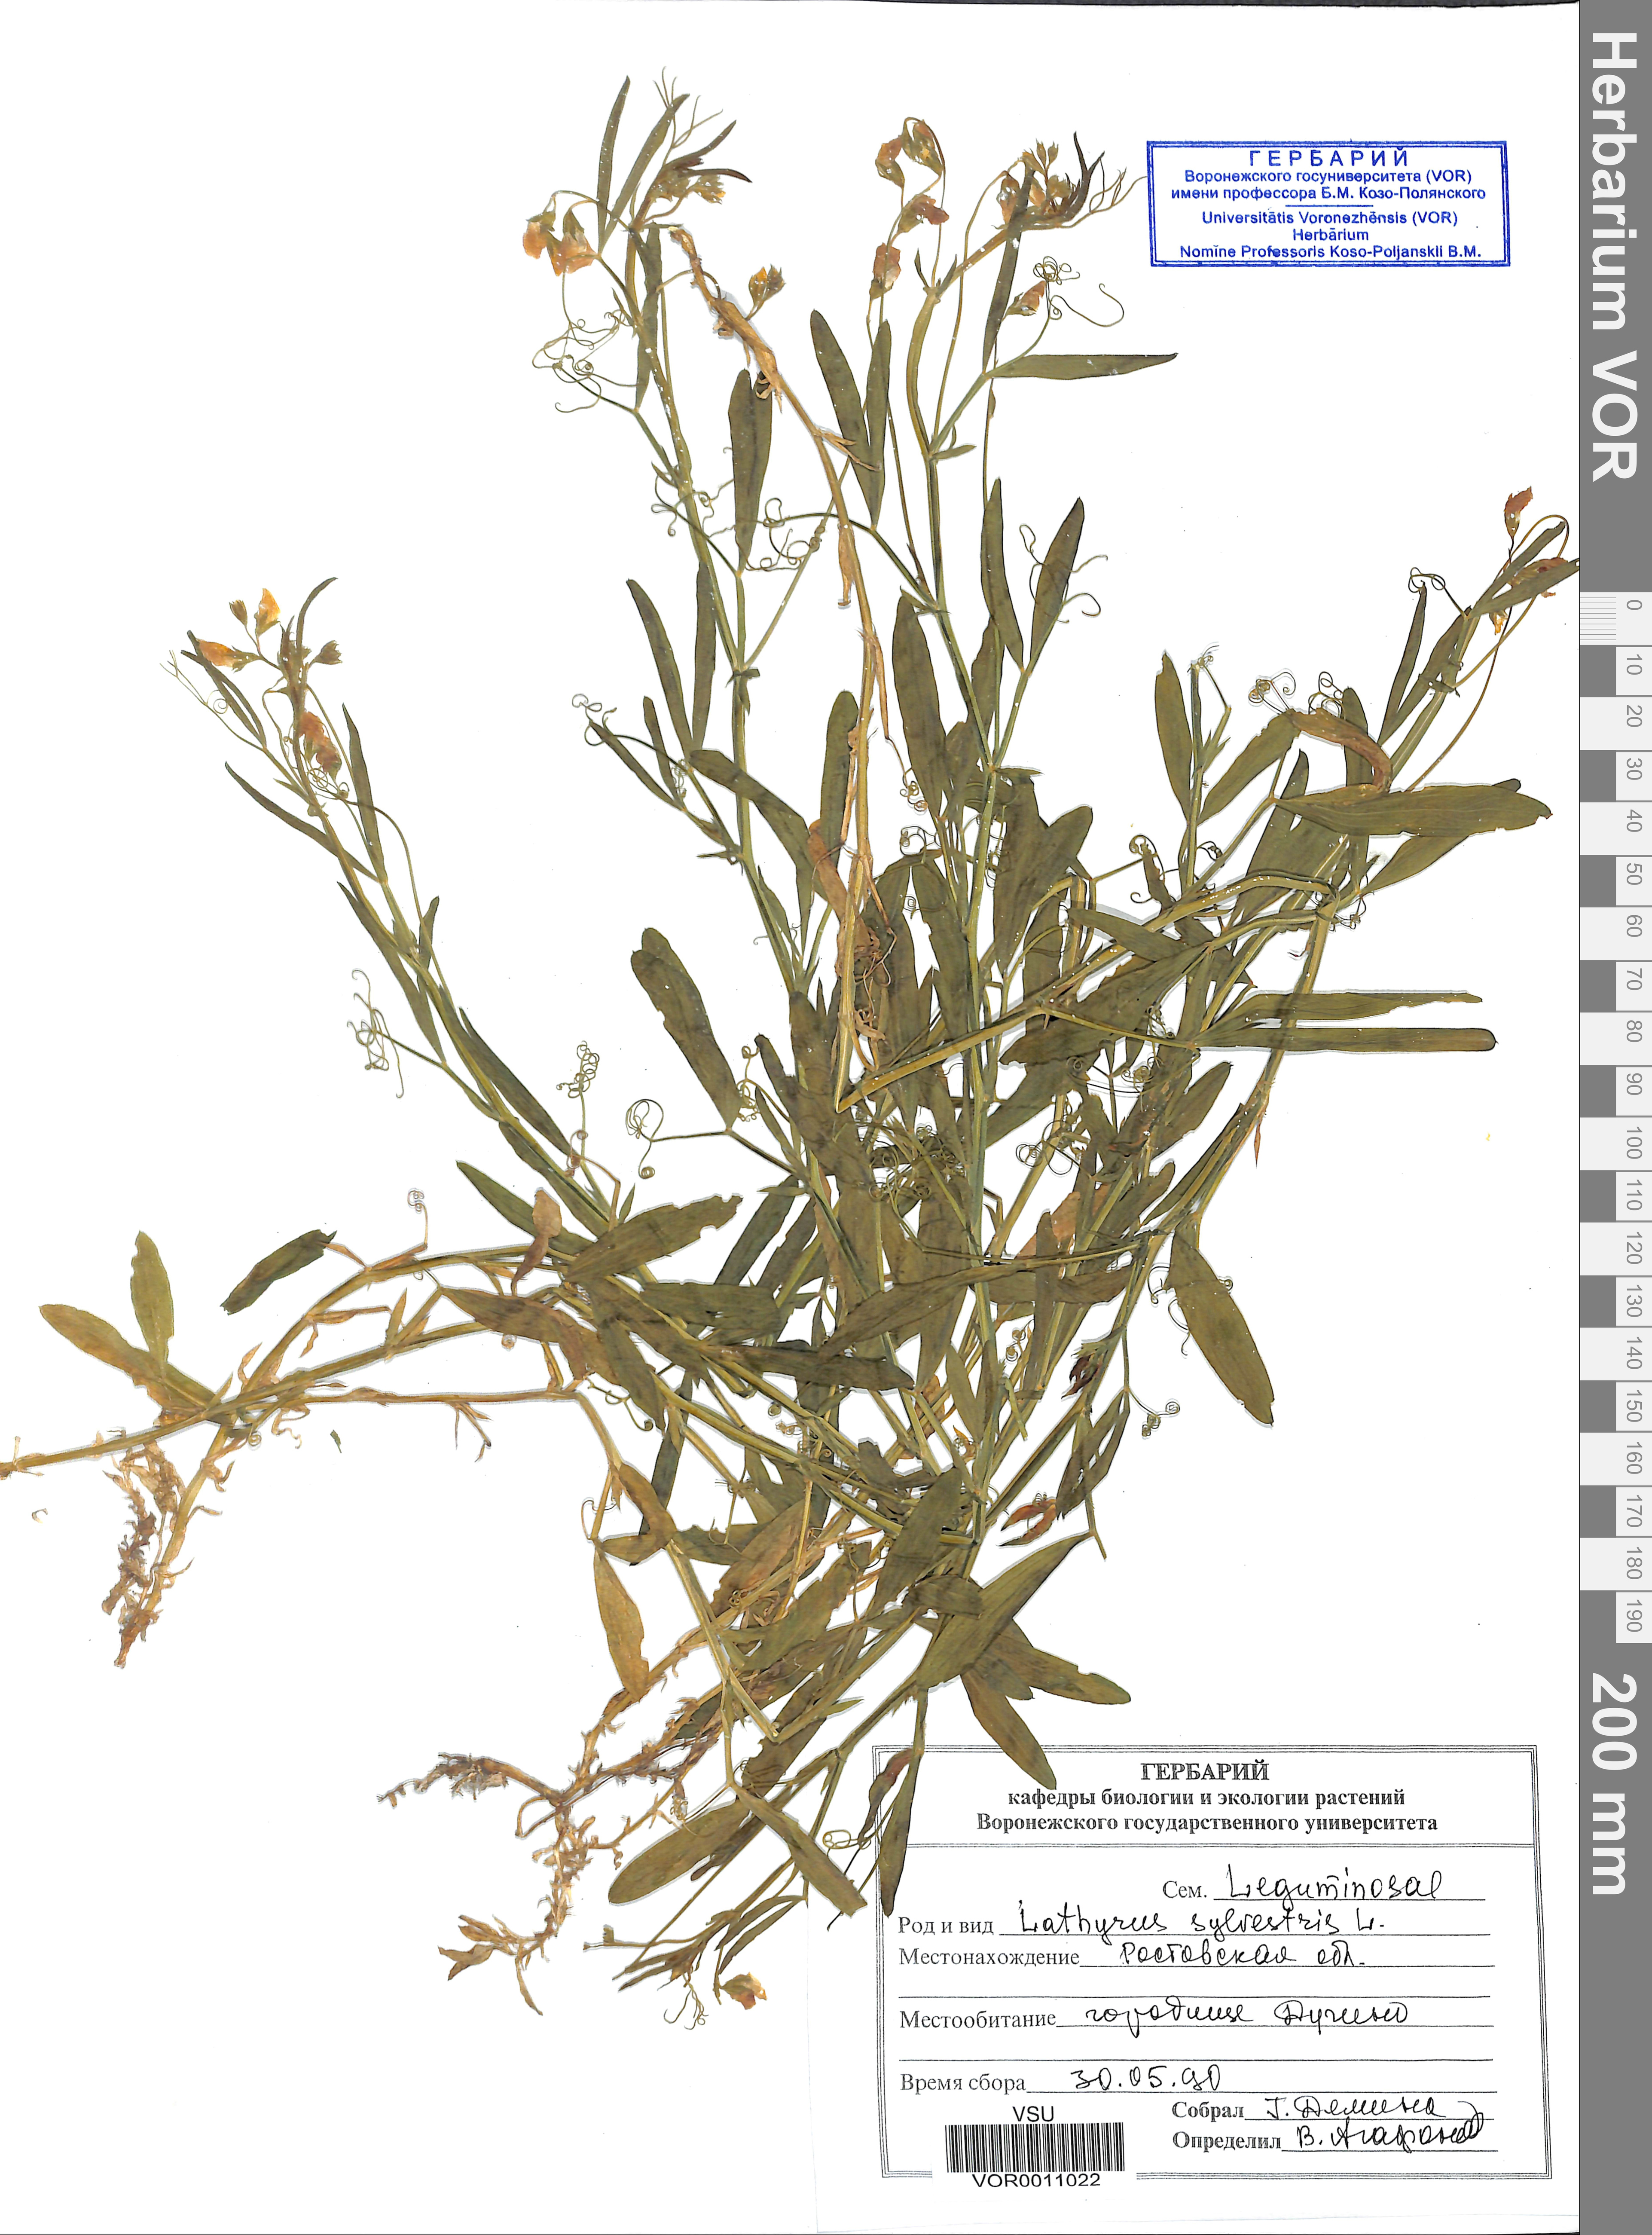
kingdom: Plantae
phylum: Tracheophyta
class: Magnoliopsida
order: Fabales
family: Fabaceae
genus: Lathyrus
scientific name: Lathyrus sylvestris
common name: Flat pea
